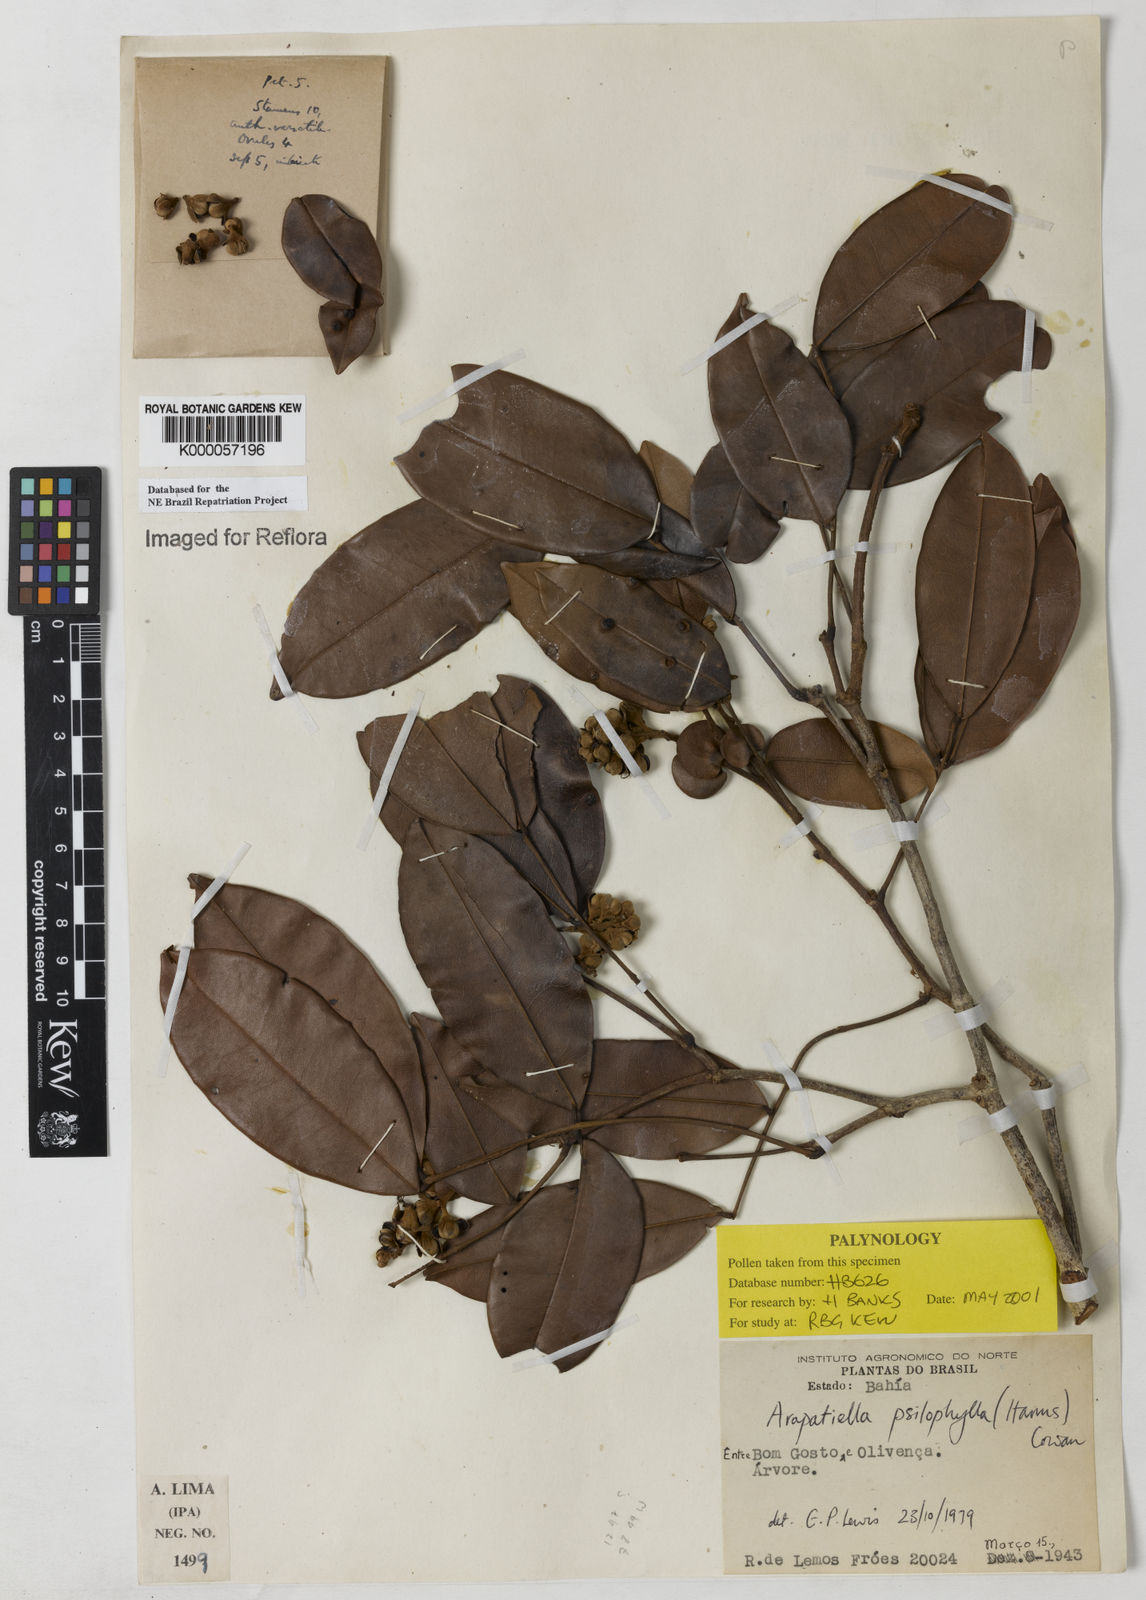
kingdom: Plantae
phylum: Tracheophyta
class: Magnoliopsida
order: Fabales
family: Fabaceae
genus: Arapatiella
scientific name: Arapatiella psilophylla
